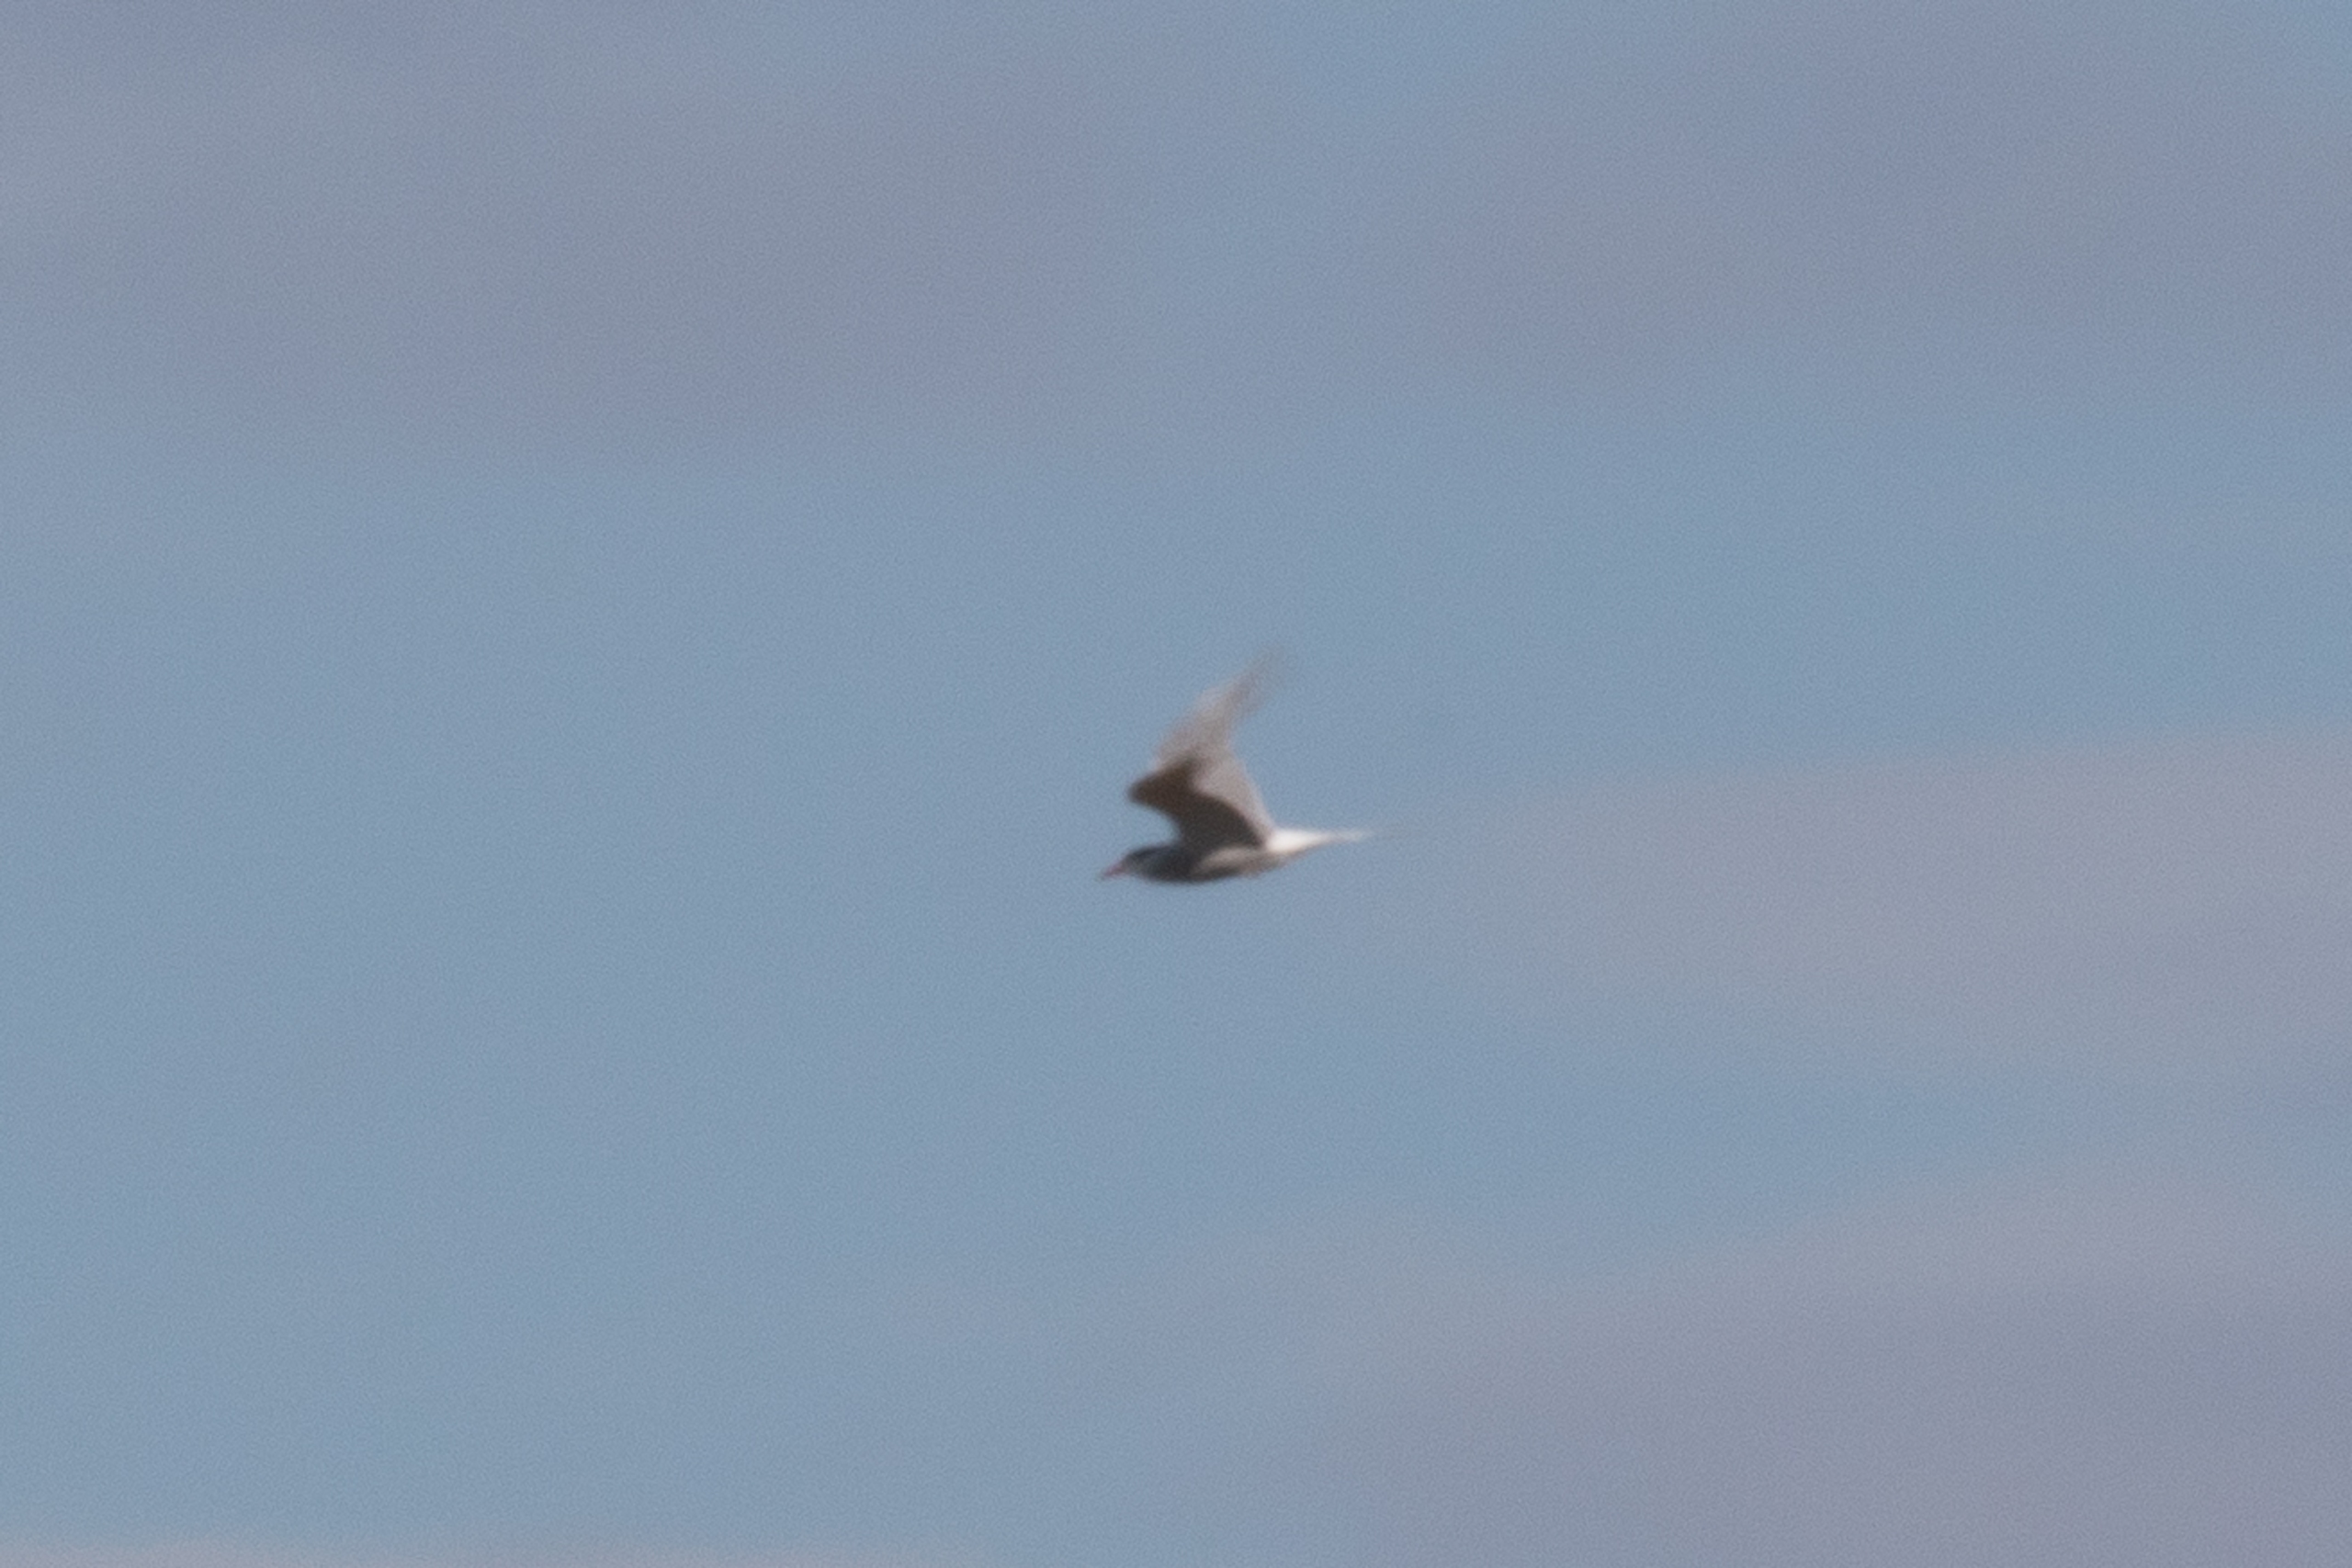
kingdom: Animalia
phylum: Chordata
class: Aves
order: Charadriiformes
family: Laridae
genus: Sterna
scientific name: Sterna hirundo
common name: Fjordterne
